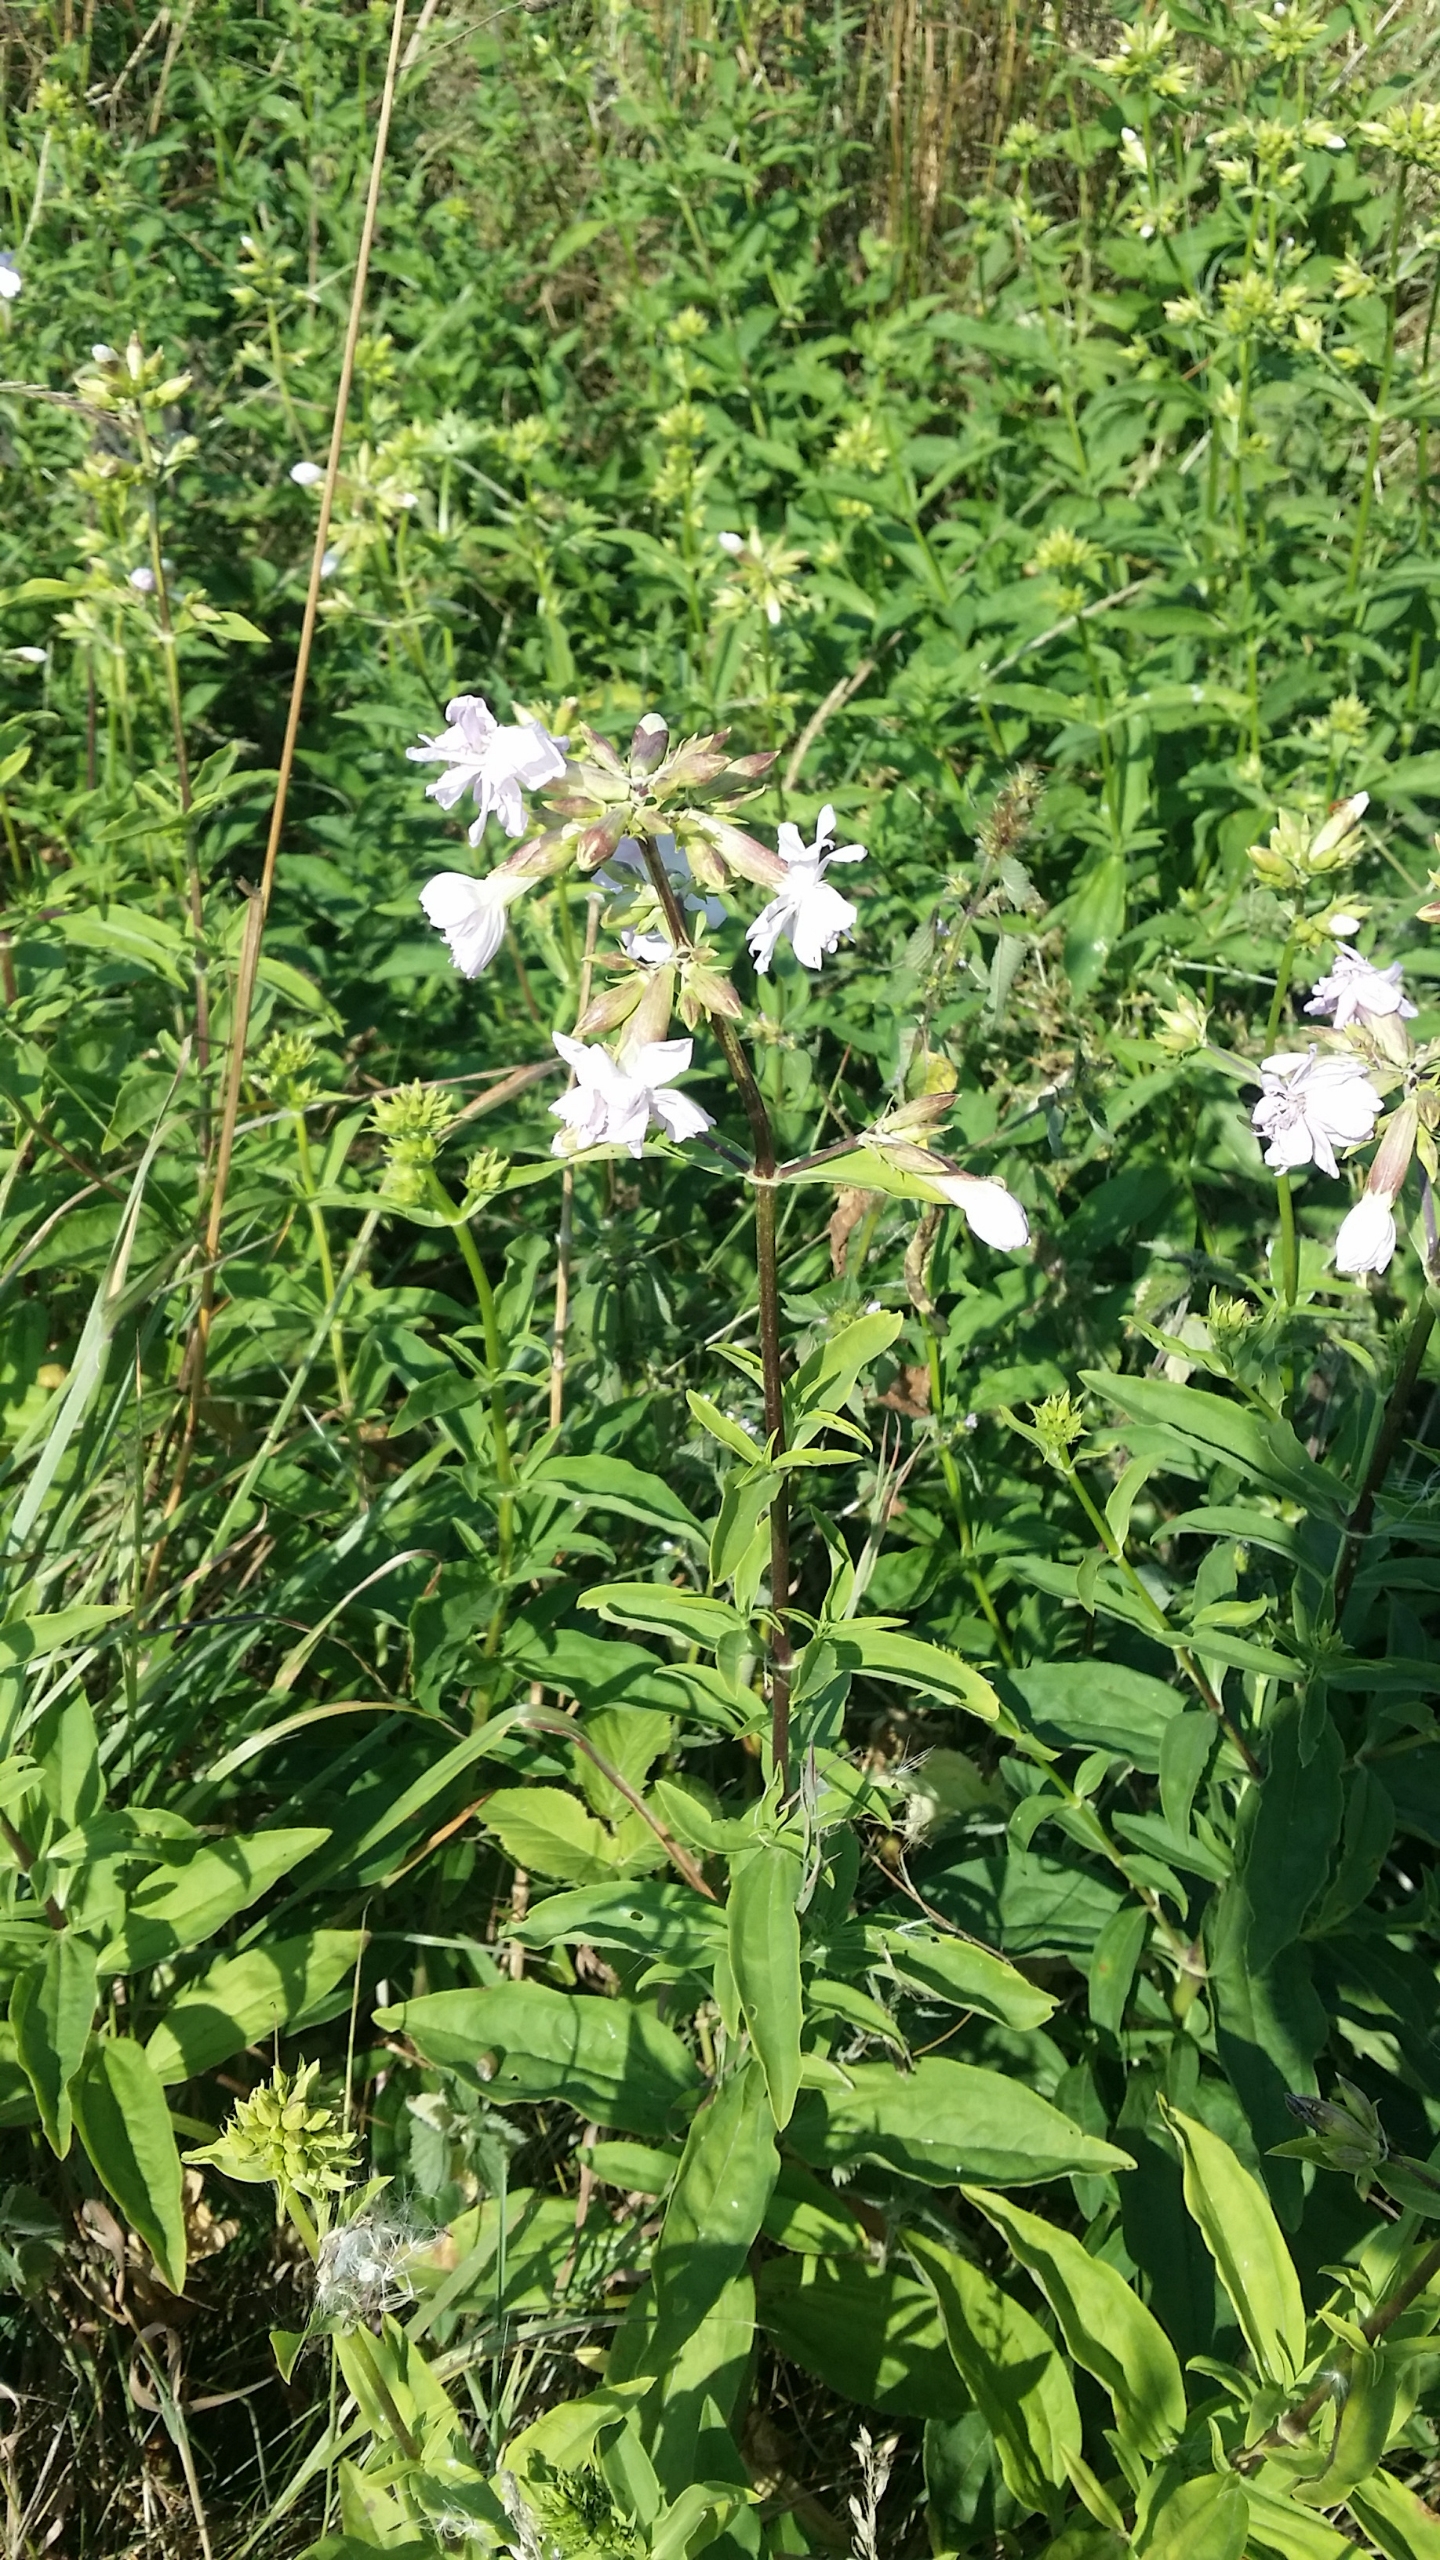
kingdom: Plantae
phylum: Tracheophyta
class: Magnoliopsida
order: Caryophyllales
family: Caryophyllaceae
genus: Saponaria
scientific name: Saponaria officinalis
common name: Sæbeurt
